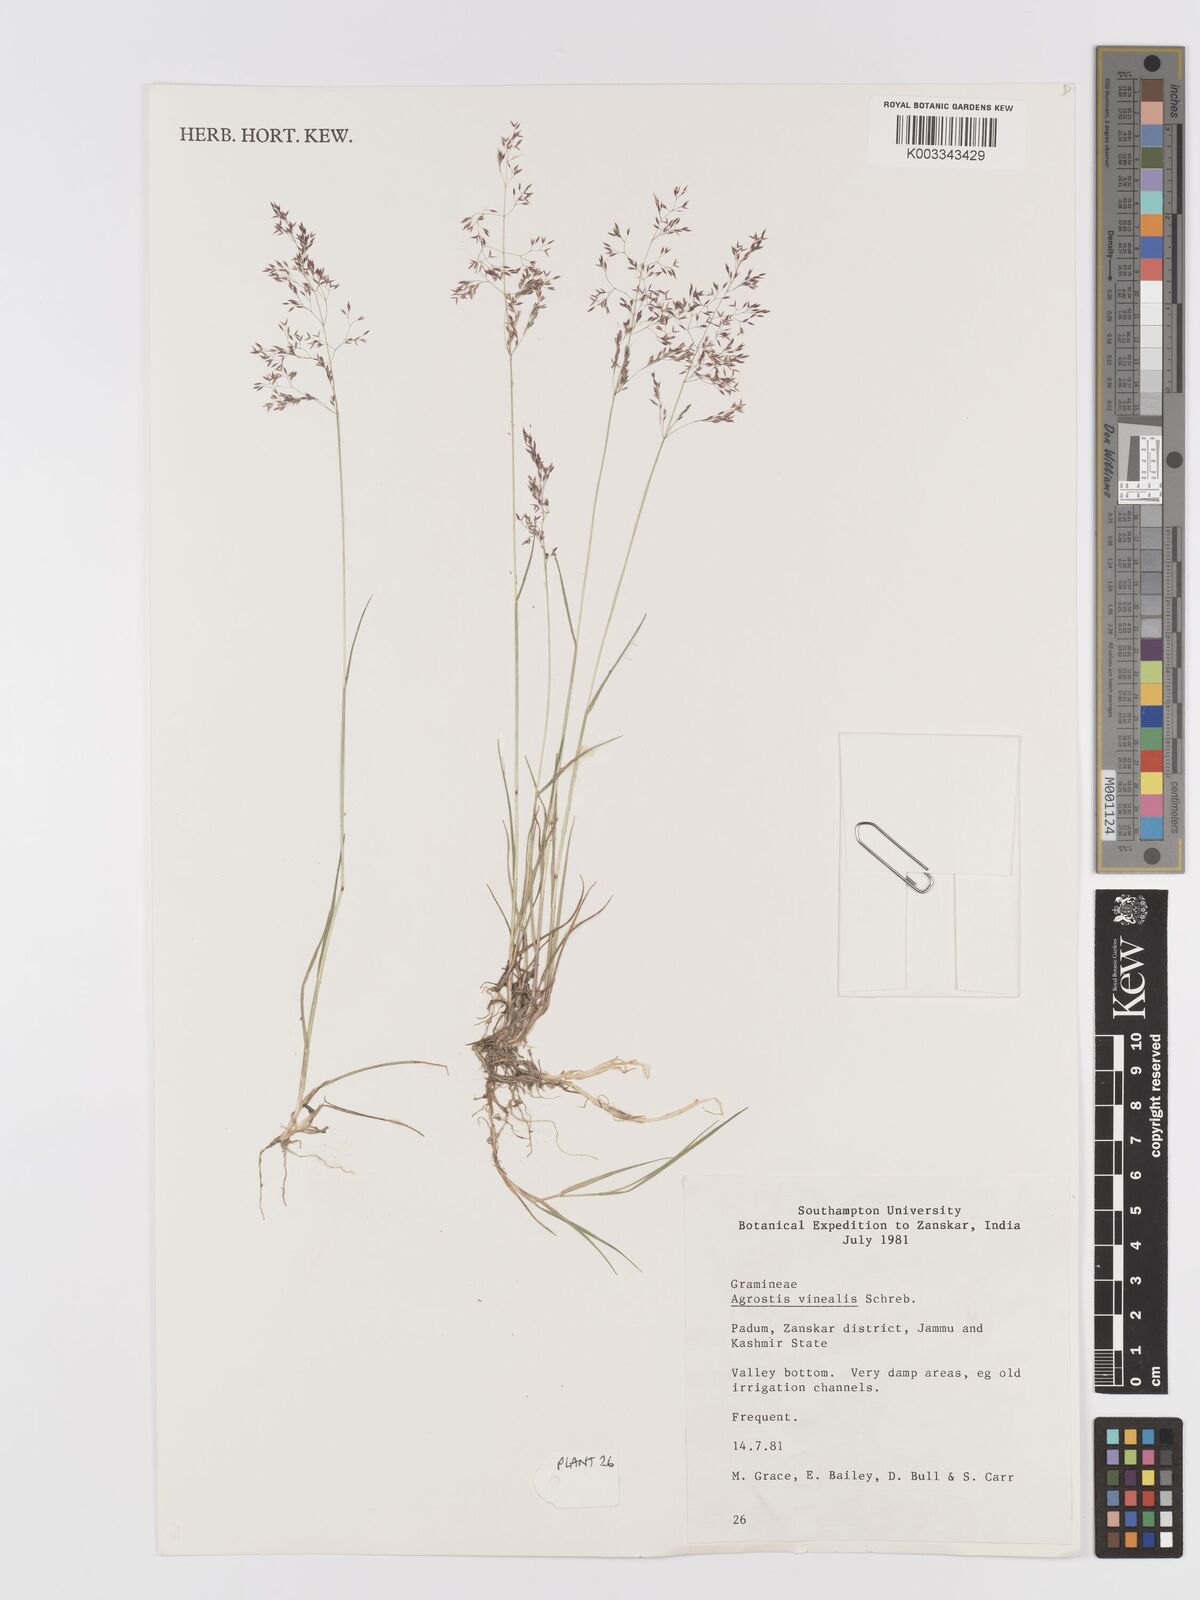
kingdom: Plantae
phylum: Tracheophyta
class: Liliopsida
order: Poales
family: Poaceae
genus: Agrostis
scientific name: Agrostis vinealis
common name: Brown bent
